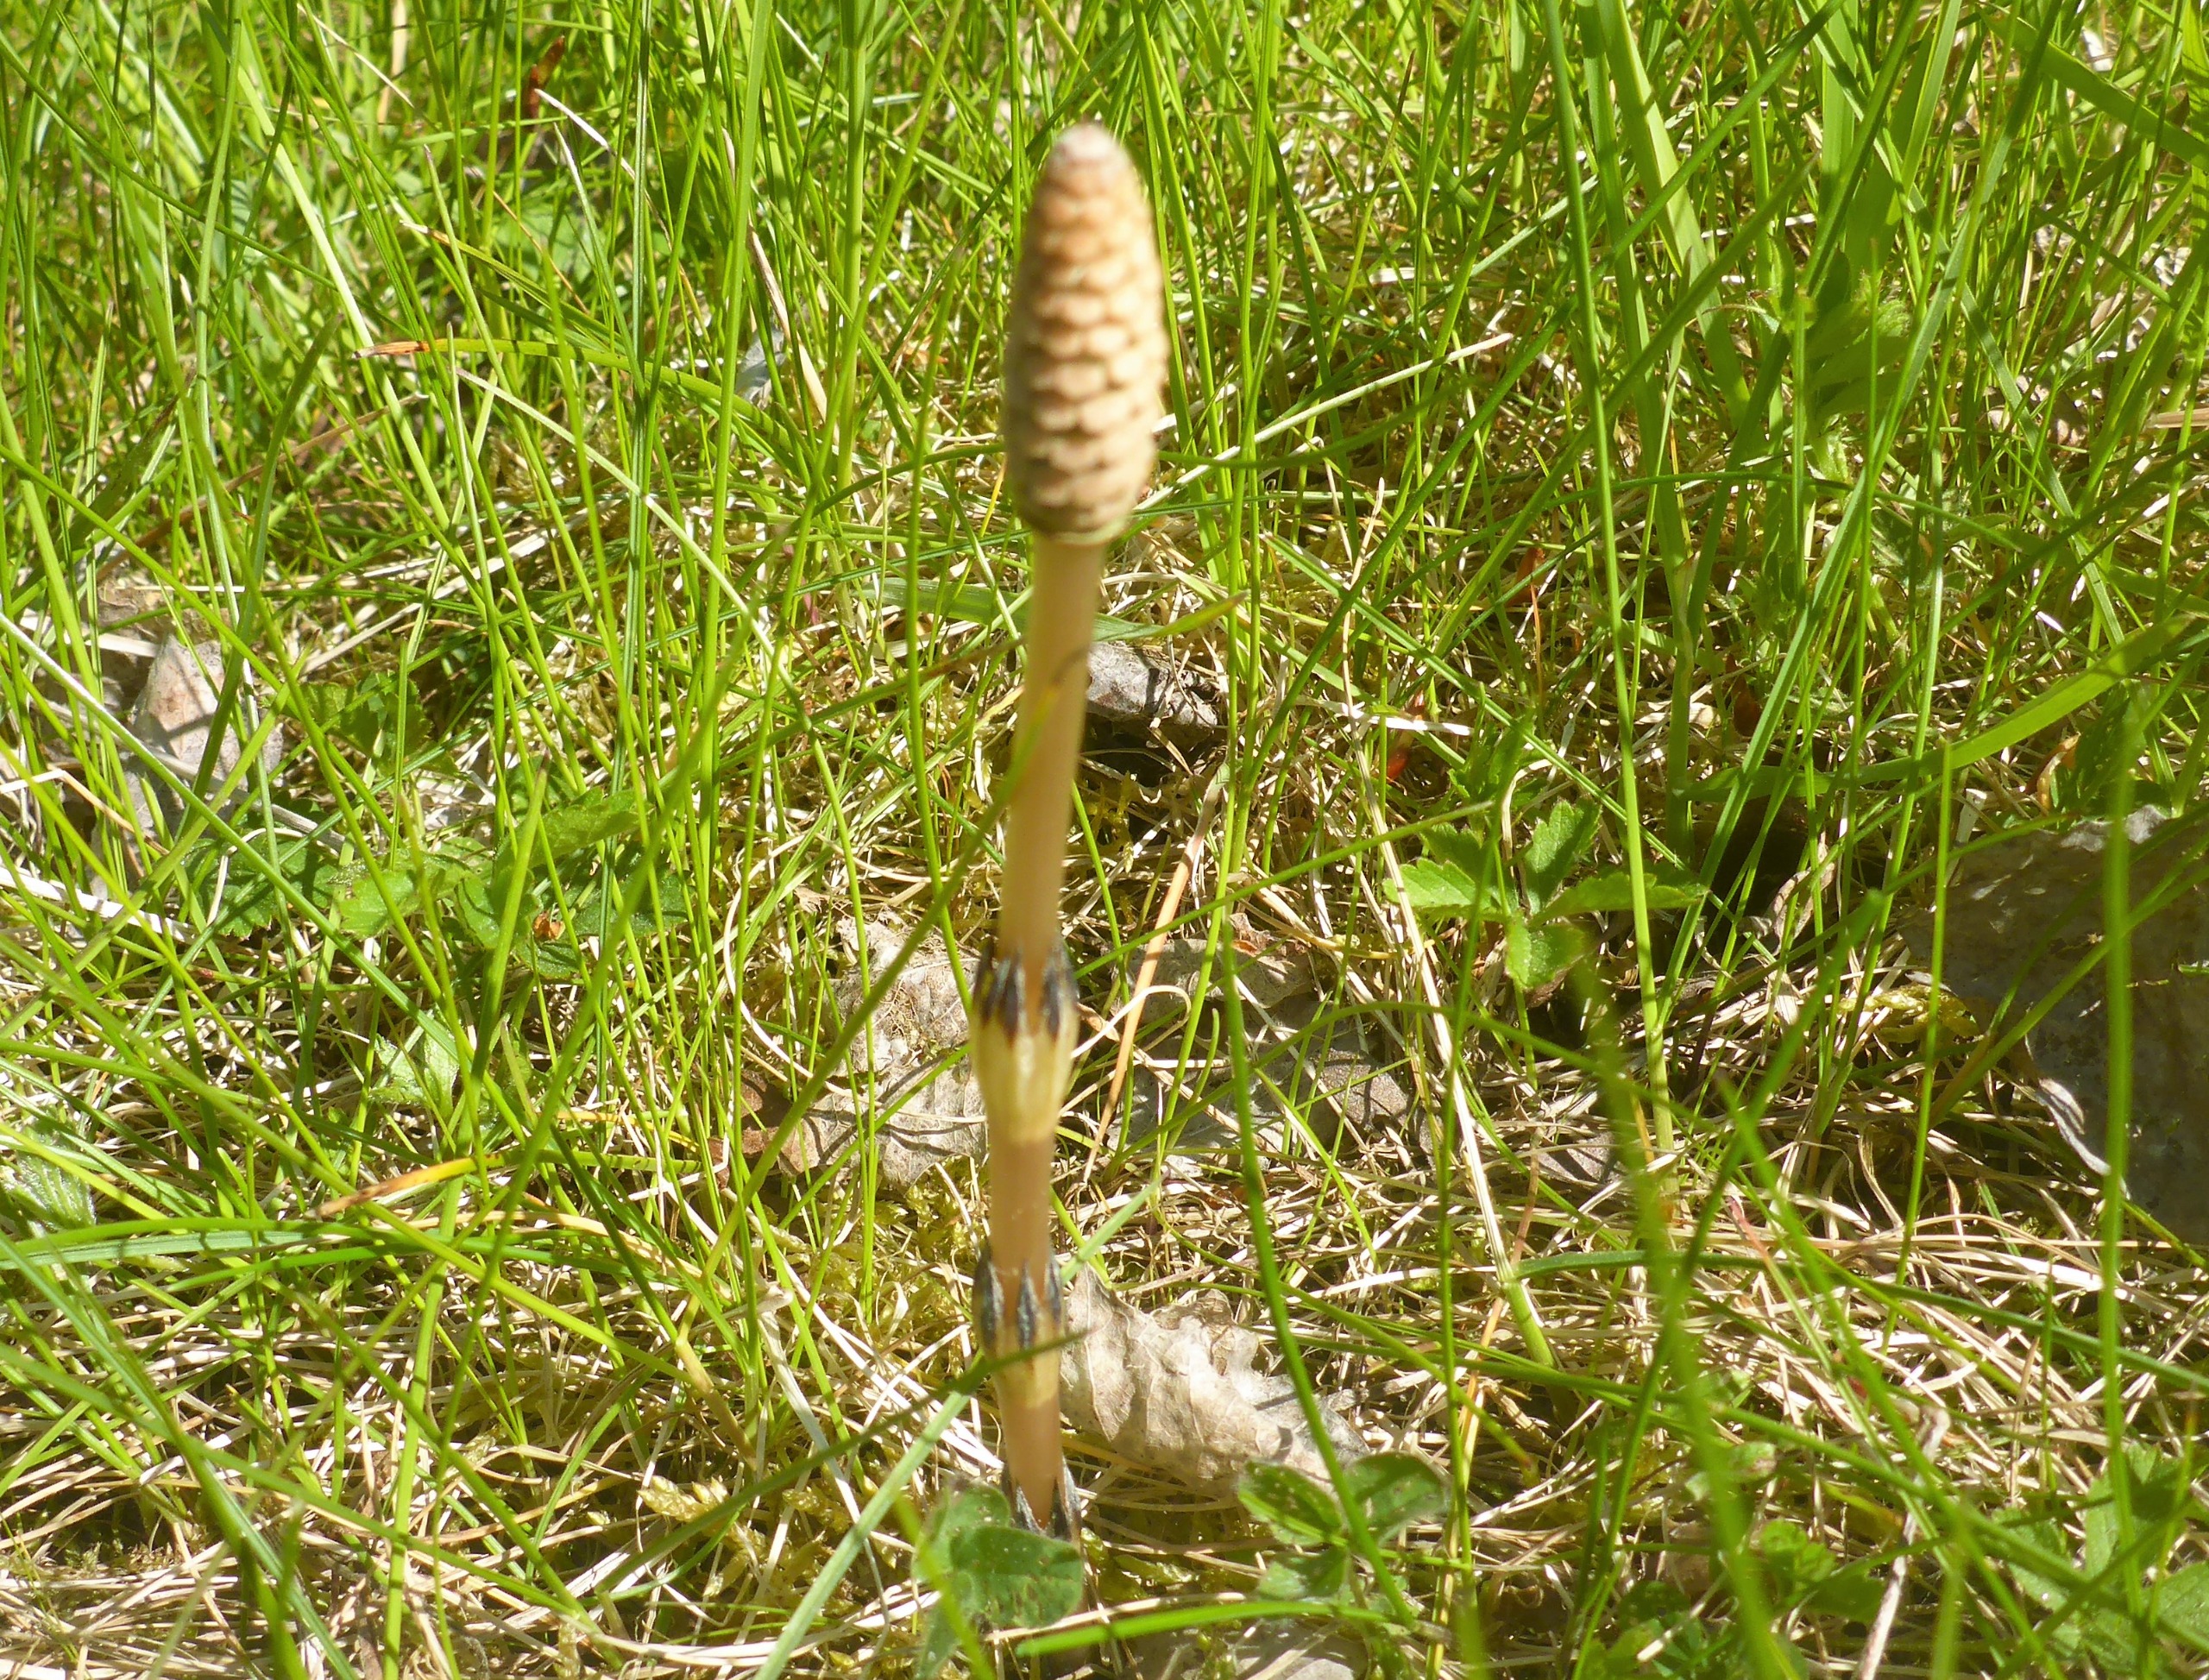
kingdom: Plantae
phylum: Tracheophyta
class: Polypodiopsida
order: Equisetales
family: Equisetaceae
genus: Equisetum
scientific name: Equisetum arvense
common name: Ager-padderok
